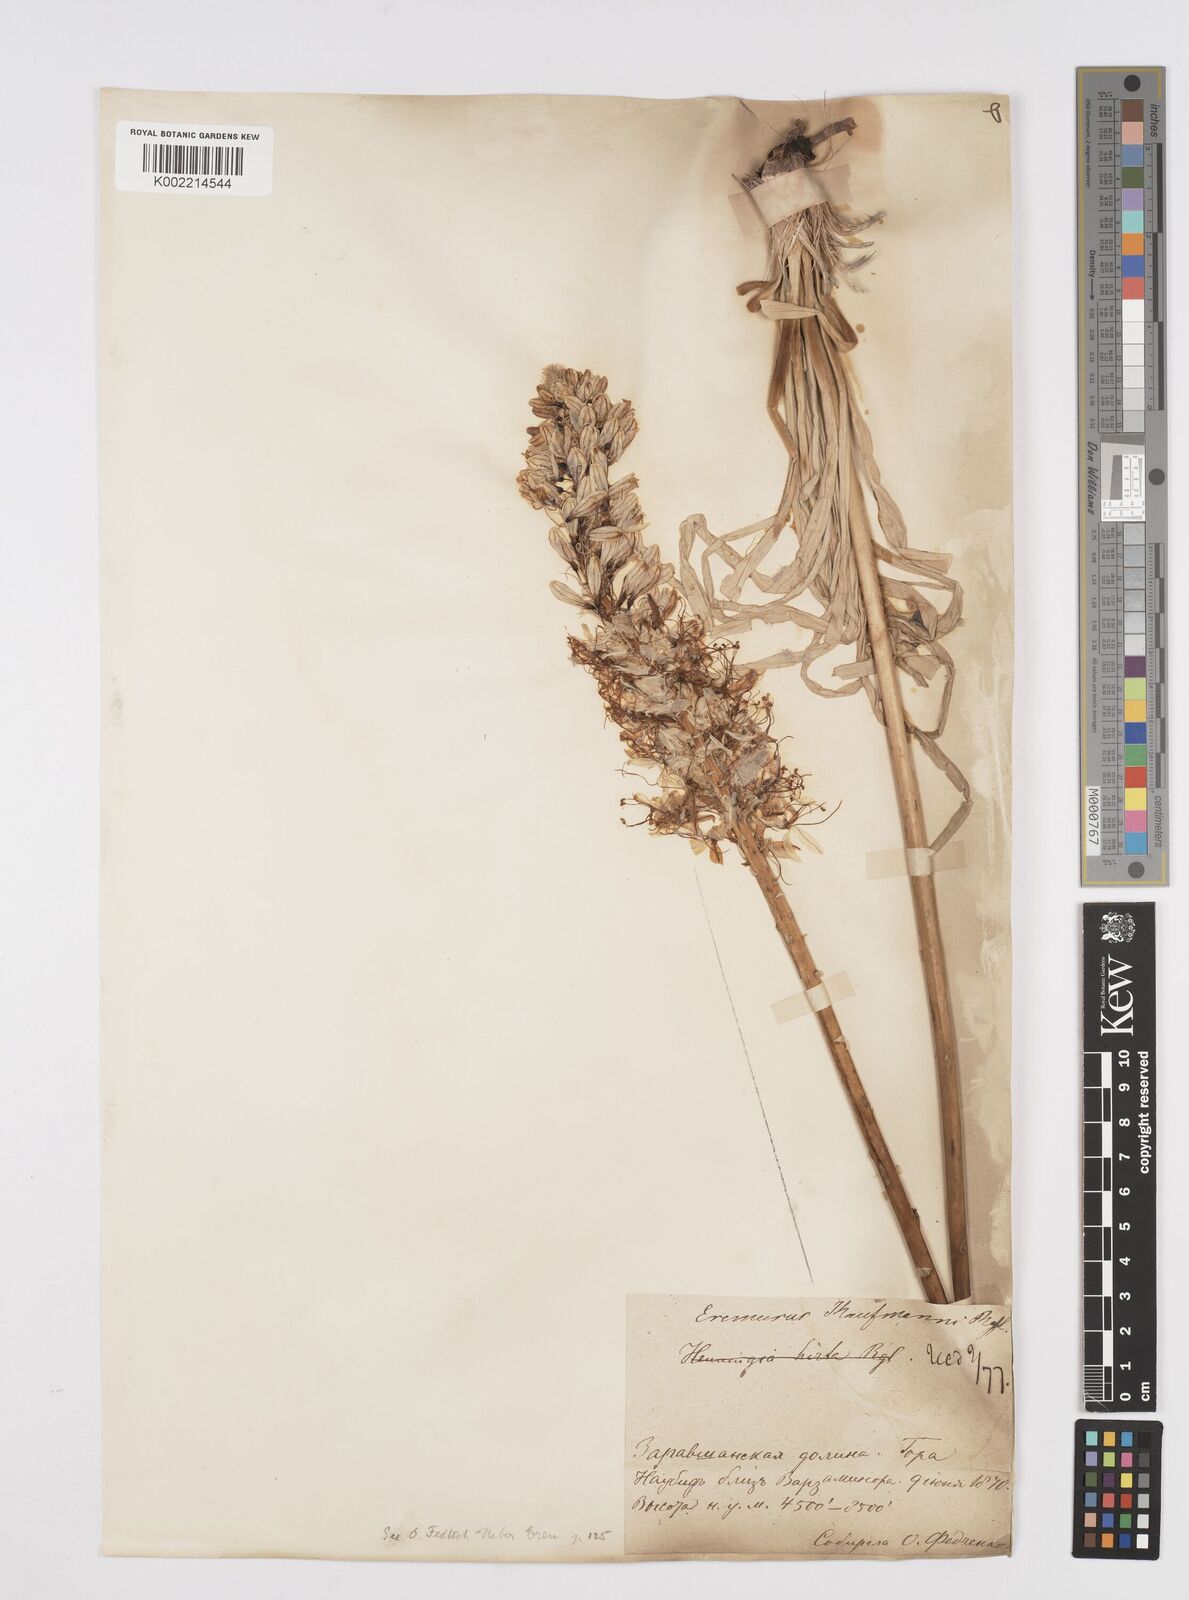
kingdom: Plantae
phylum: Tracheophyta
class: Liliopsida
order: Asparagales
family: Asphodelaceae
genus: Eremurus
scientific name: Eremurus kaufmannii
